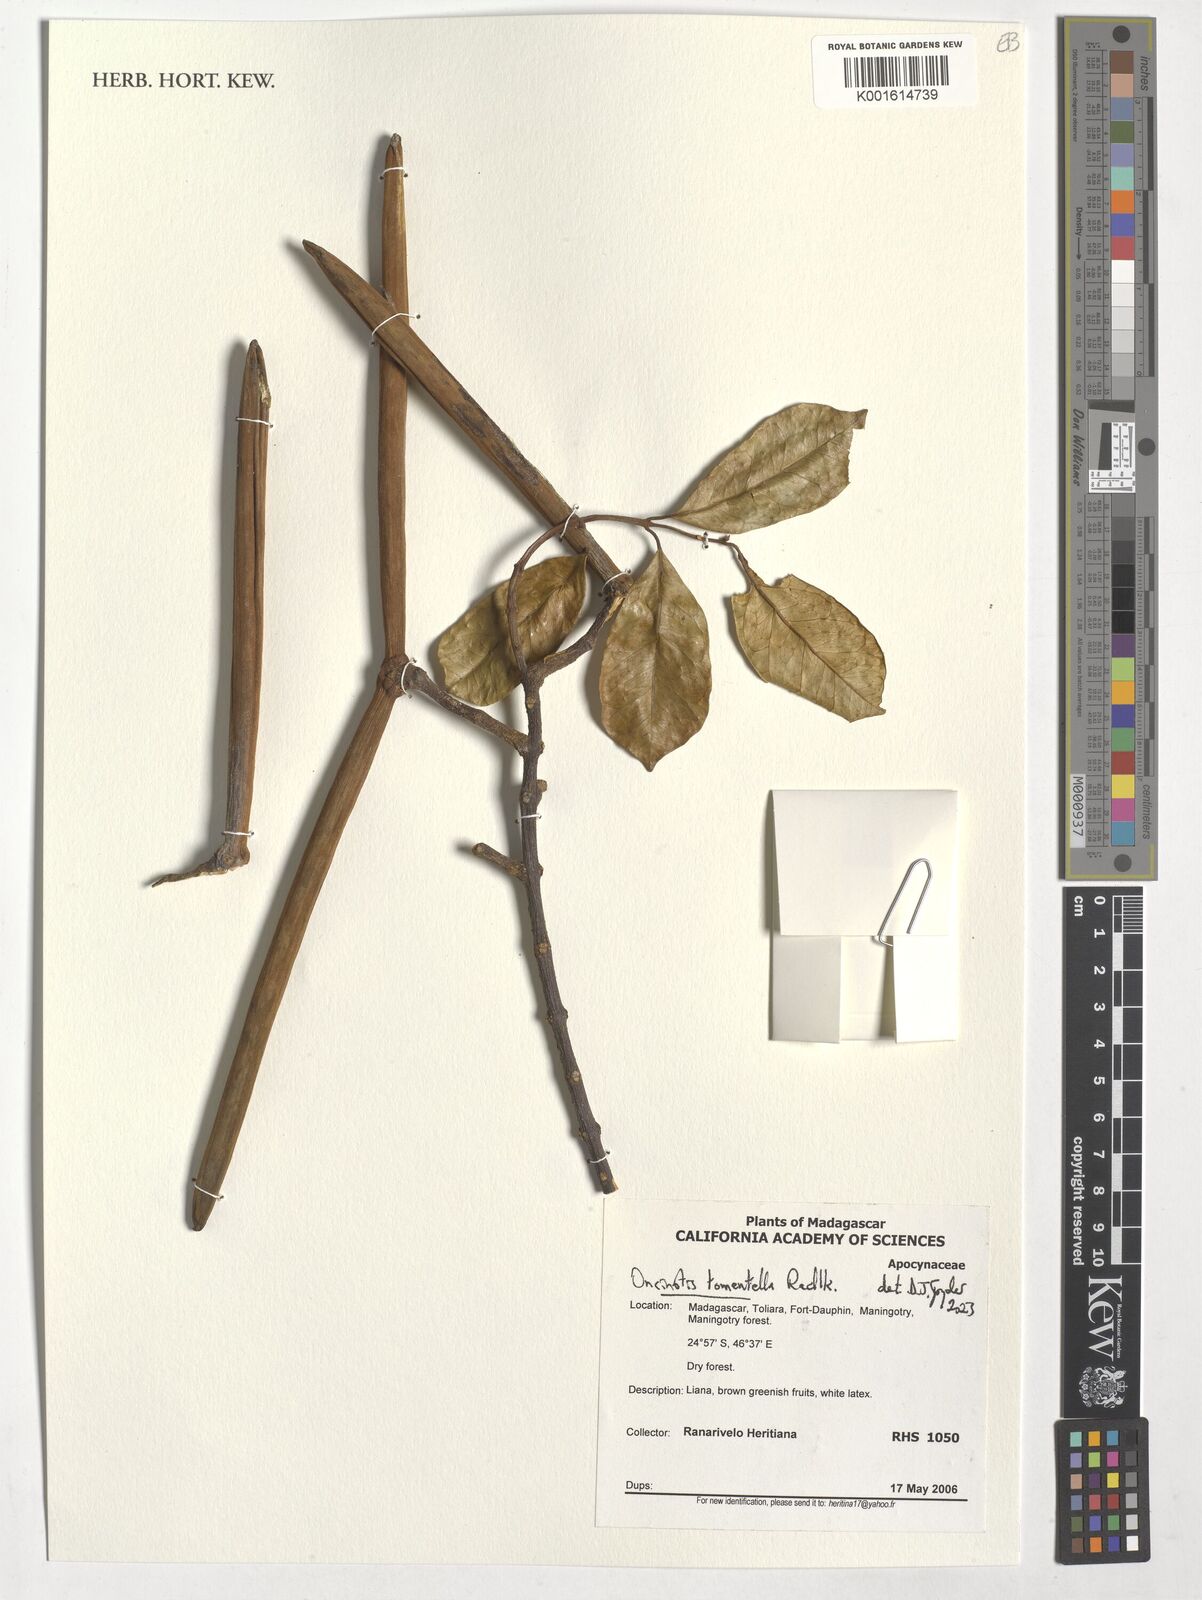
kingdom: Plantae
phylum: Tracheophyta
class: Magnoliopsida
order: Gentianales
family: Apocynaceae
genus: Oncinotis
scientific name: Oncinotis tomentella
